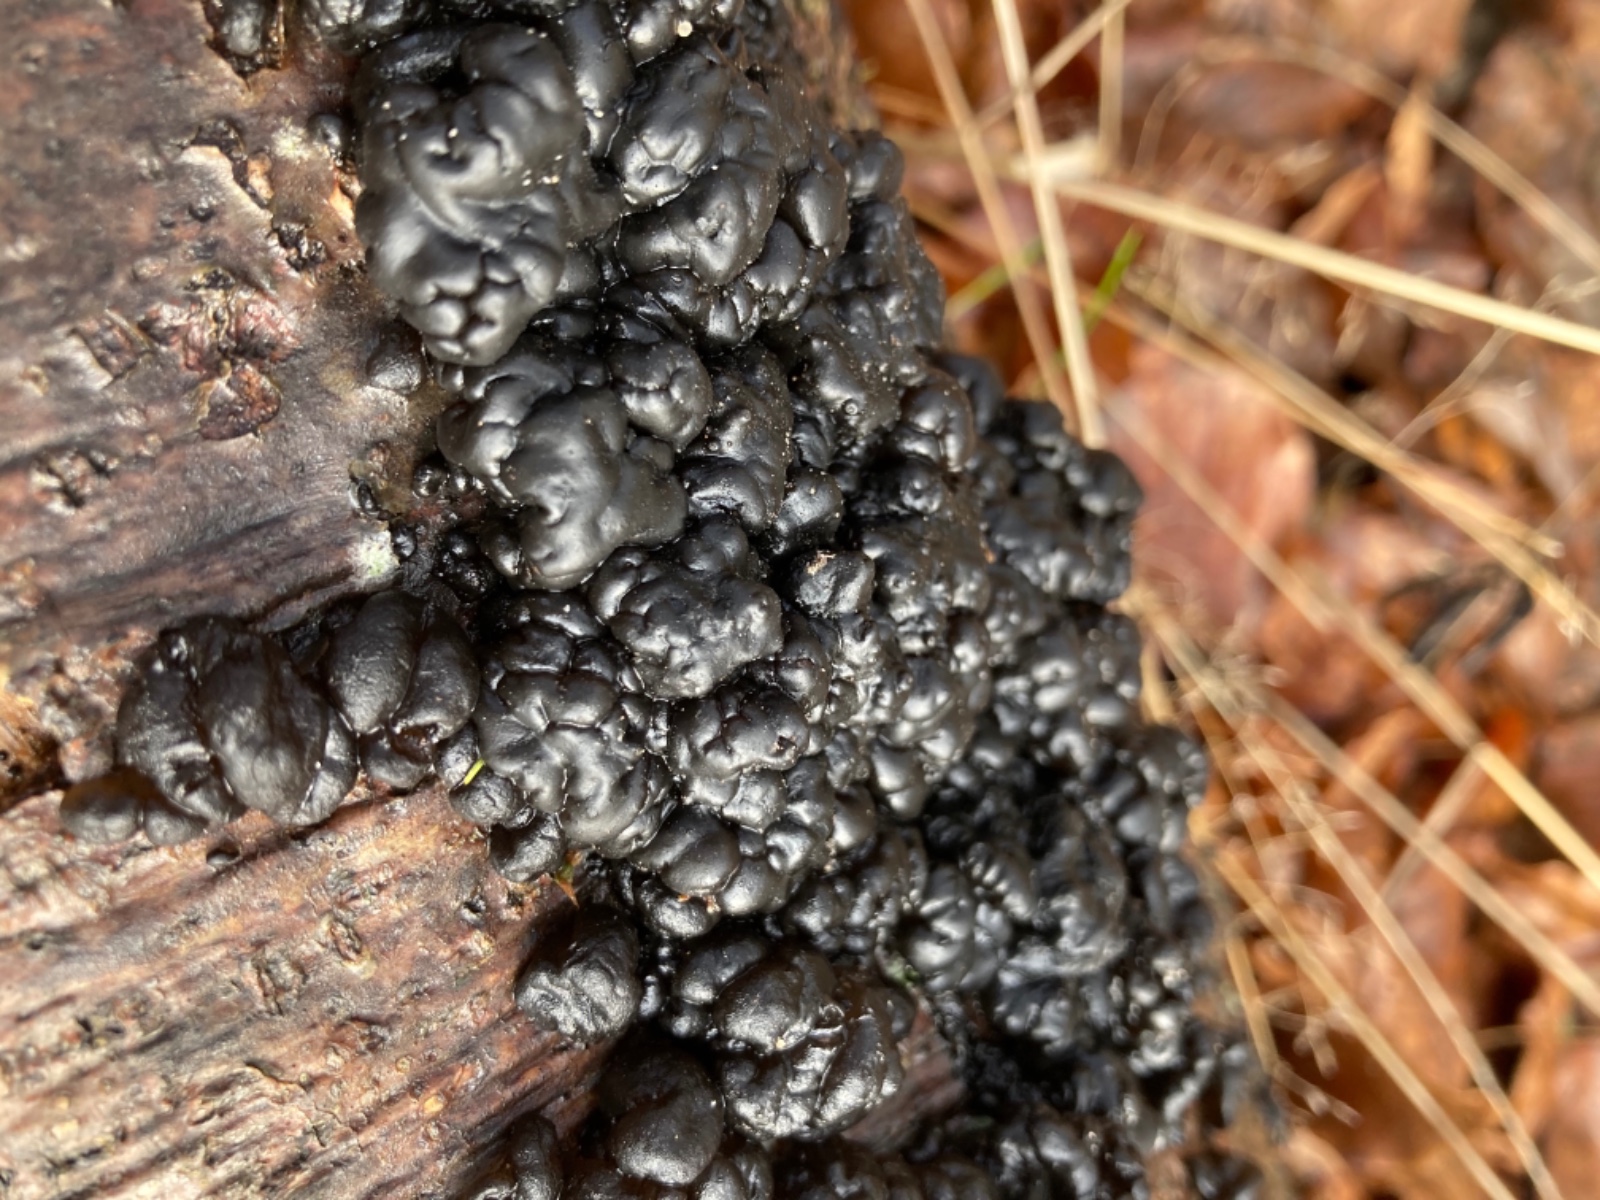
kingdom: Fungi
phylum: Basidiomycota
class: Agaricomycetes
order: Auriculariales
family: Auriculariaceae
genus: Exidia
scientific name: Exidia nigricans
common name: almindelig bævretop
